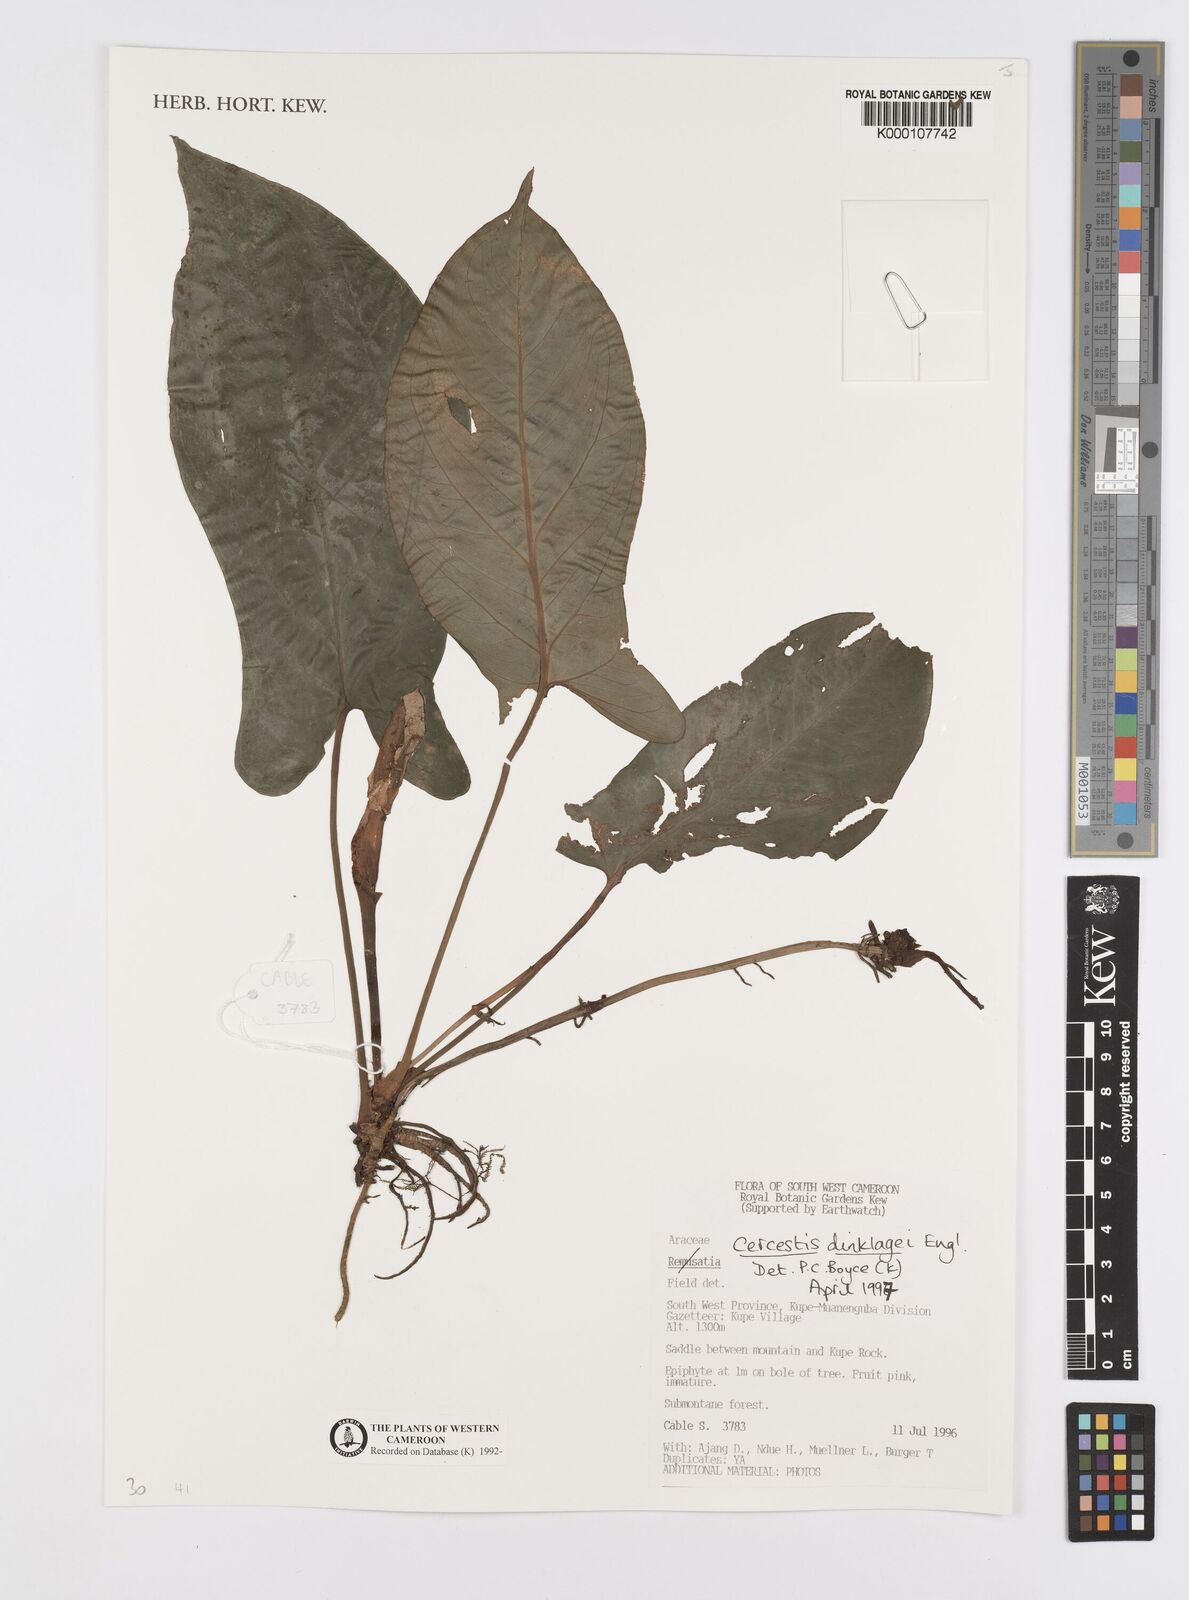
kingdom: Plantae
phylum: Tracheophyta
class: Liliopsida
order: Alismatales
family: Araceae
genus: Cercestis
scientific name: Cercestis dinklagei
